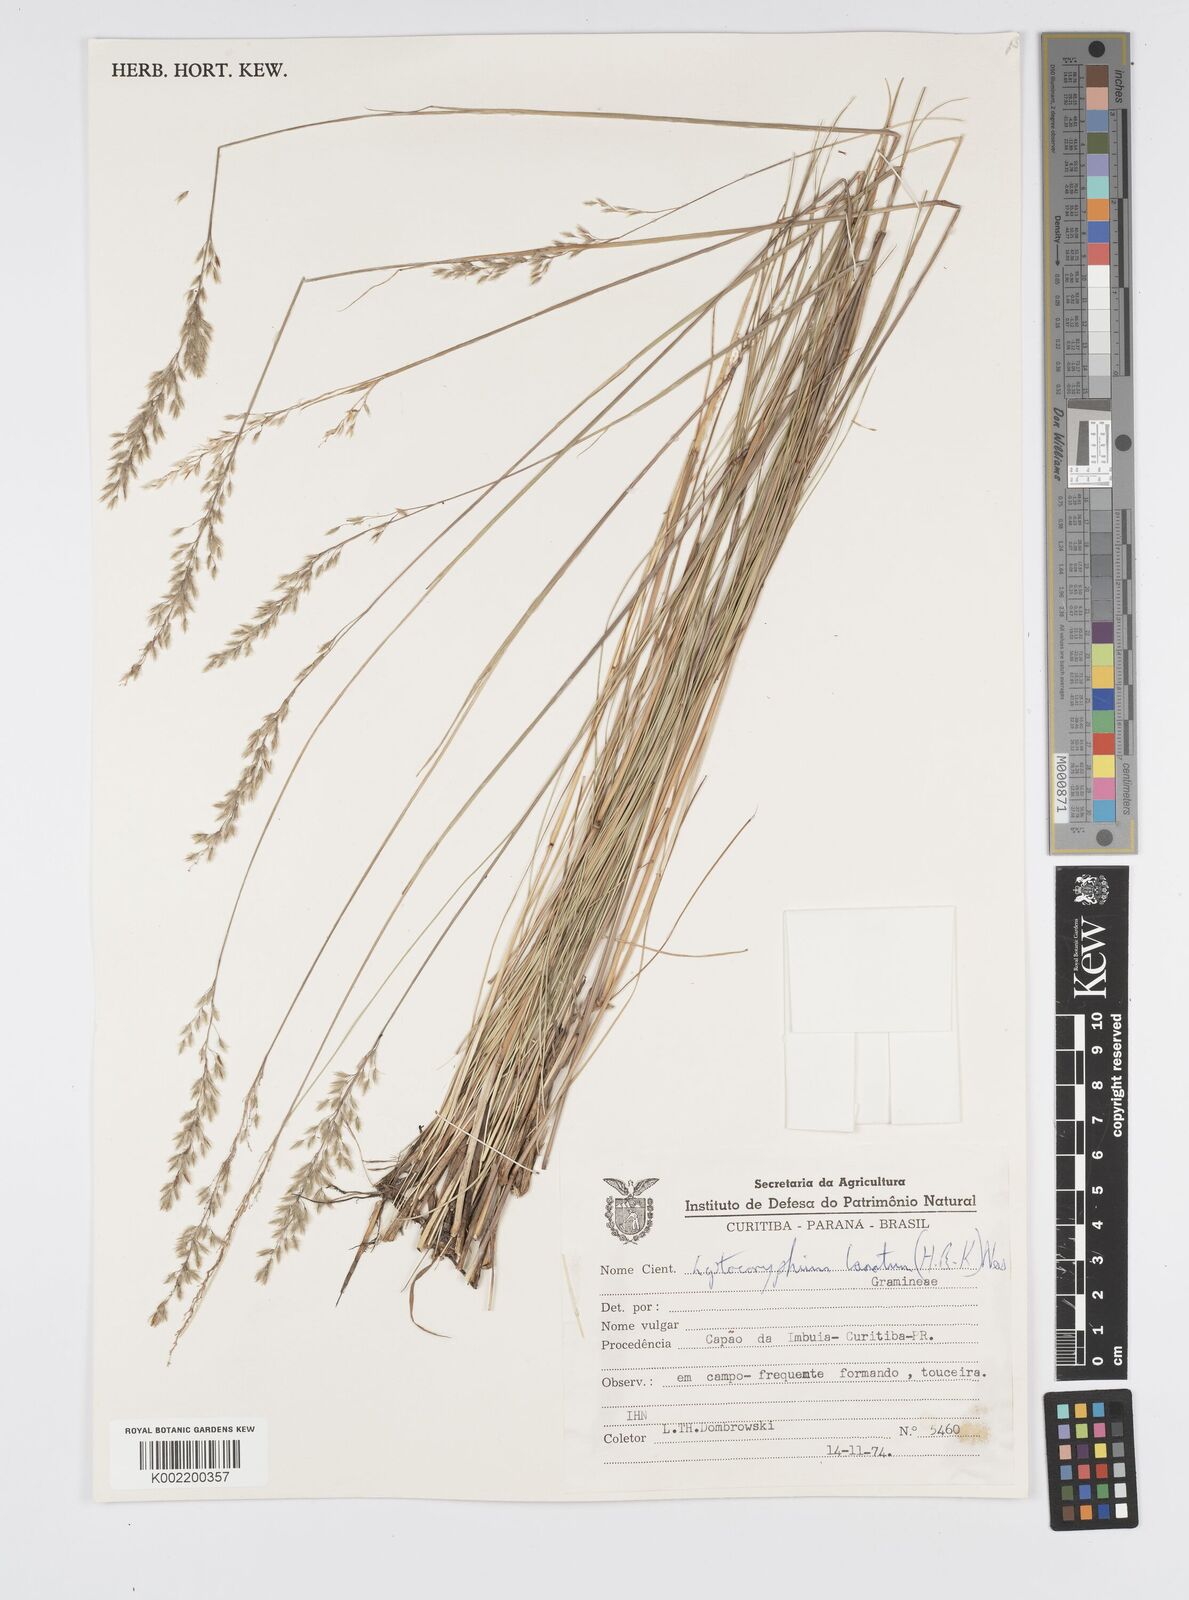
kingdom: Plantae
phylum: Tracheophyta
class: Liliopsida
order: Poales
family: Poaceae
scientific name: Poaceae
